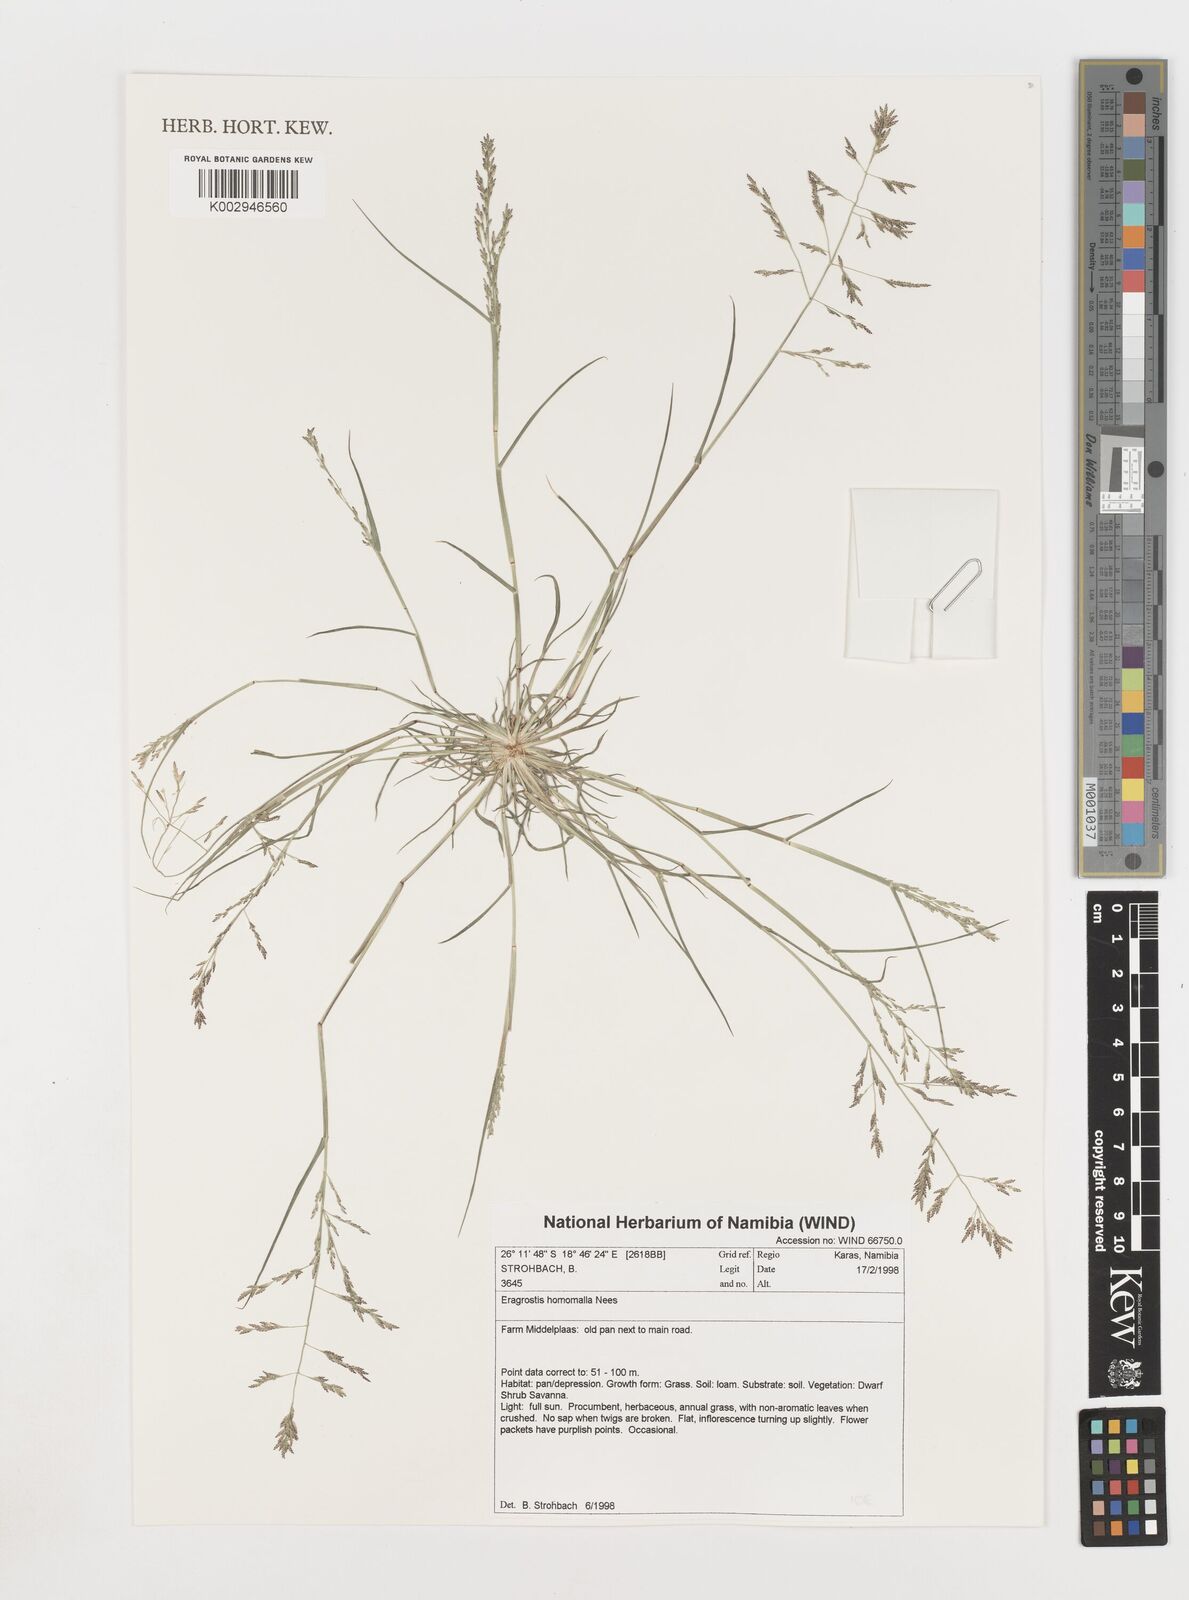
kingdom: Plantae
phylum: Tracheophyta
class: Liliopsida
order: Poales
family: Poaceae
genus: Eragrostis
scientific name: Eragrostis homomalla
